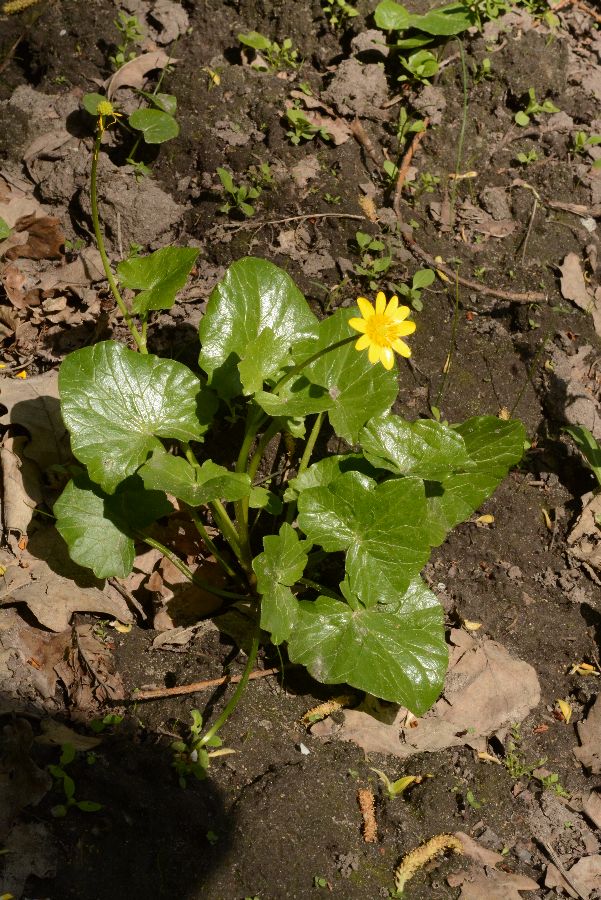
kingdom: Plantae
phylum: Tracheophyta
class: Magnoliopsida
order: Ranunculales
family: Ranunculaceae
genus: Ficaria
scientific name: Ficaria verna
